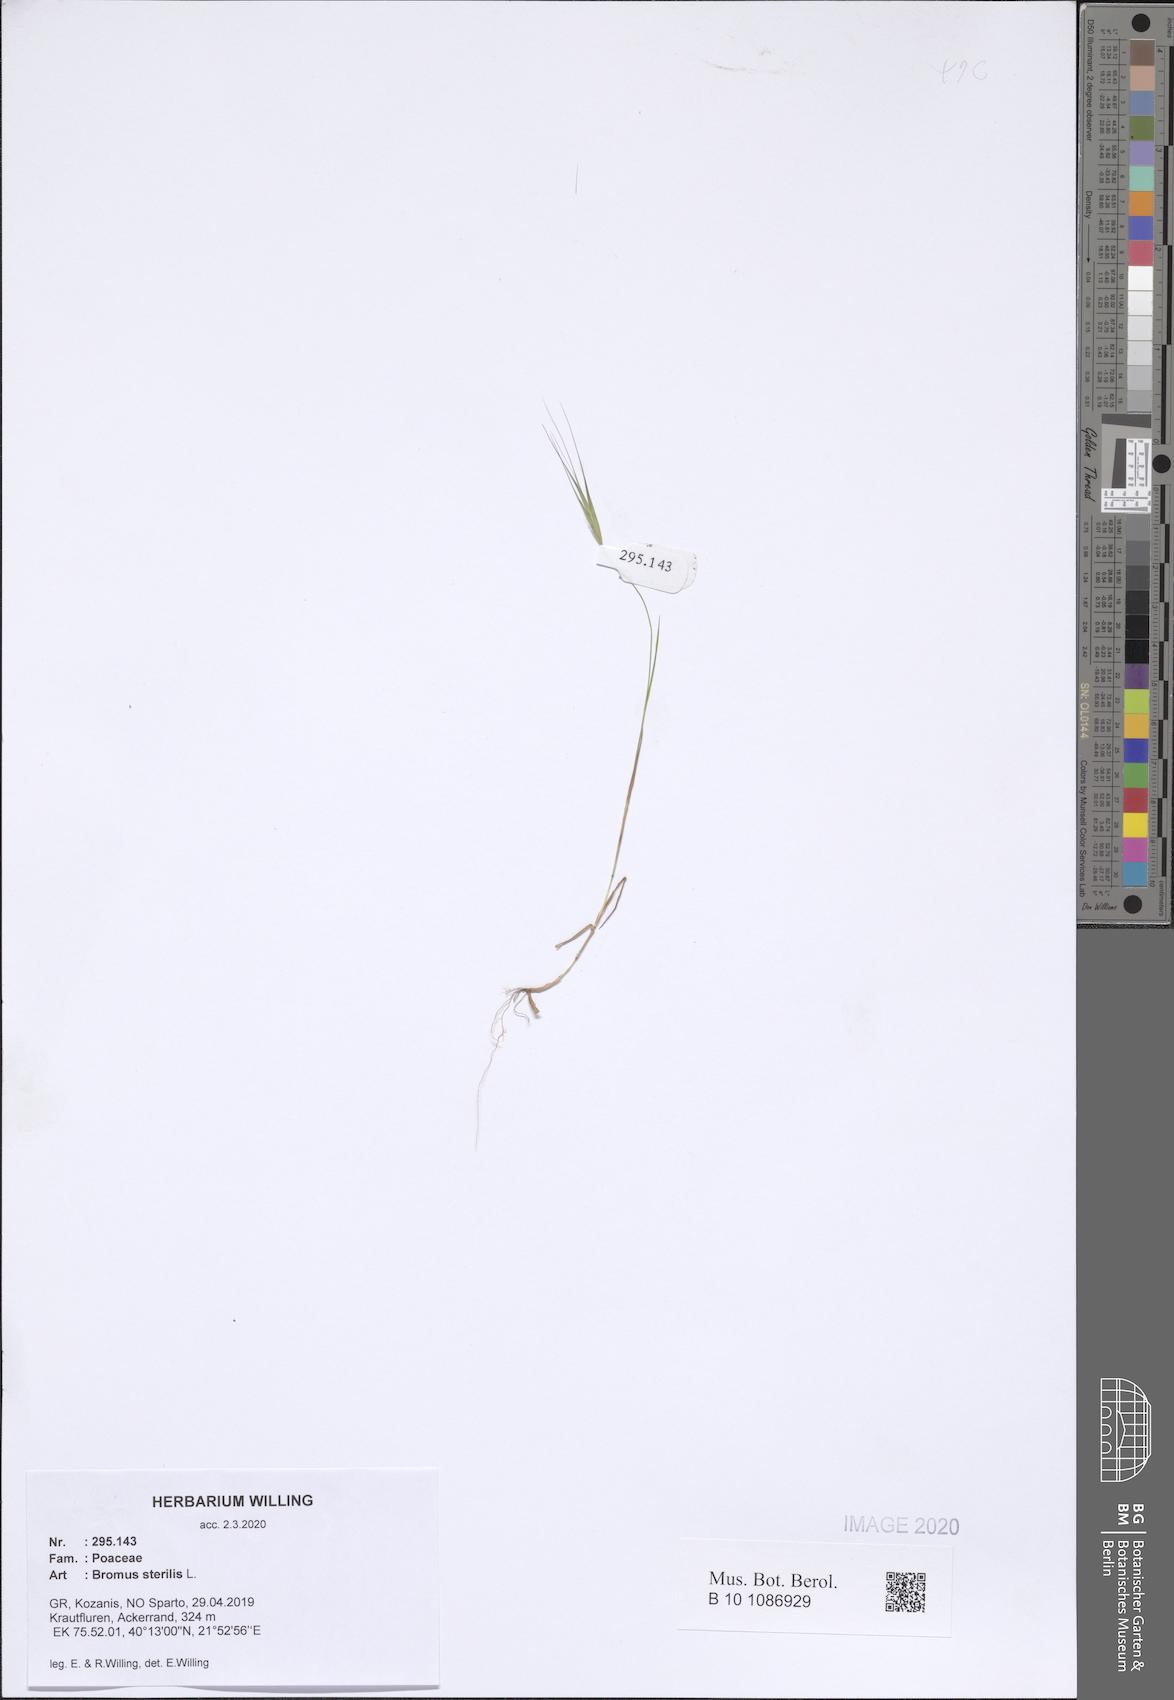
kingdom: Plantae
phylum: Tracheophyta
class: Liliopsida
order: Poales
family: Poaceae
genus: Bromus
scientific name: Bromus sterilis
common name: Poverty brome
